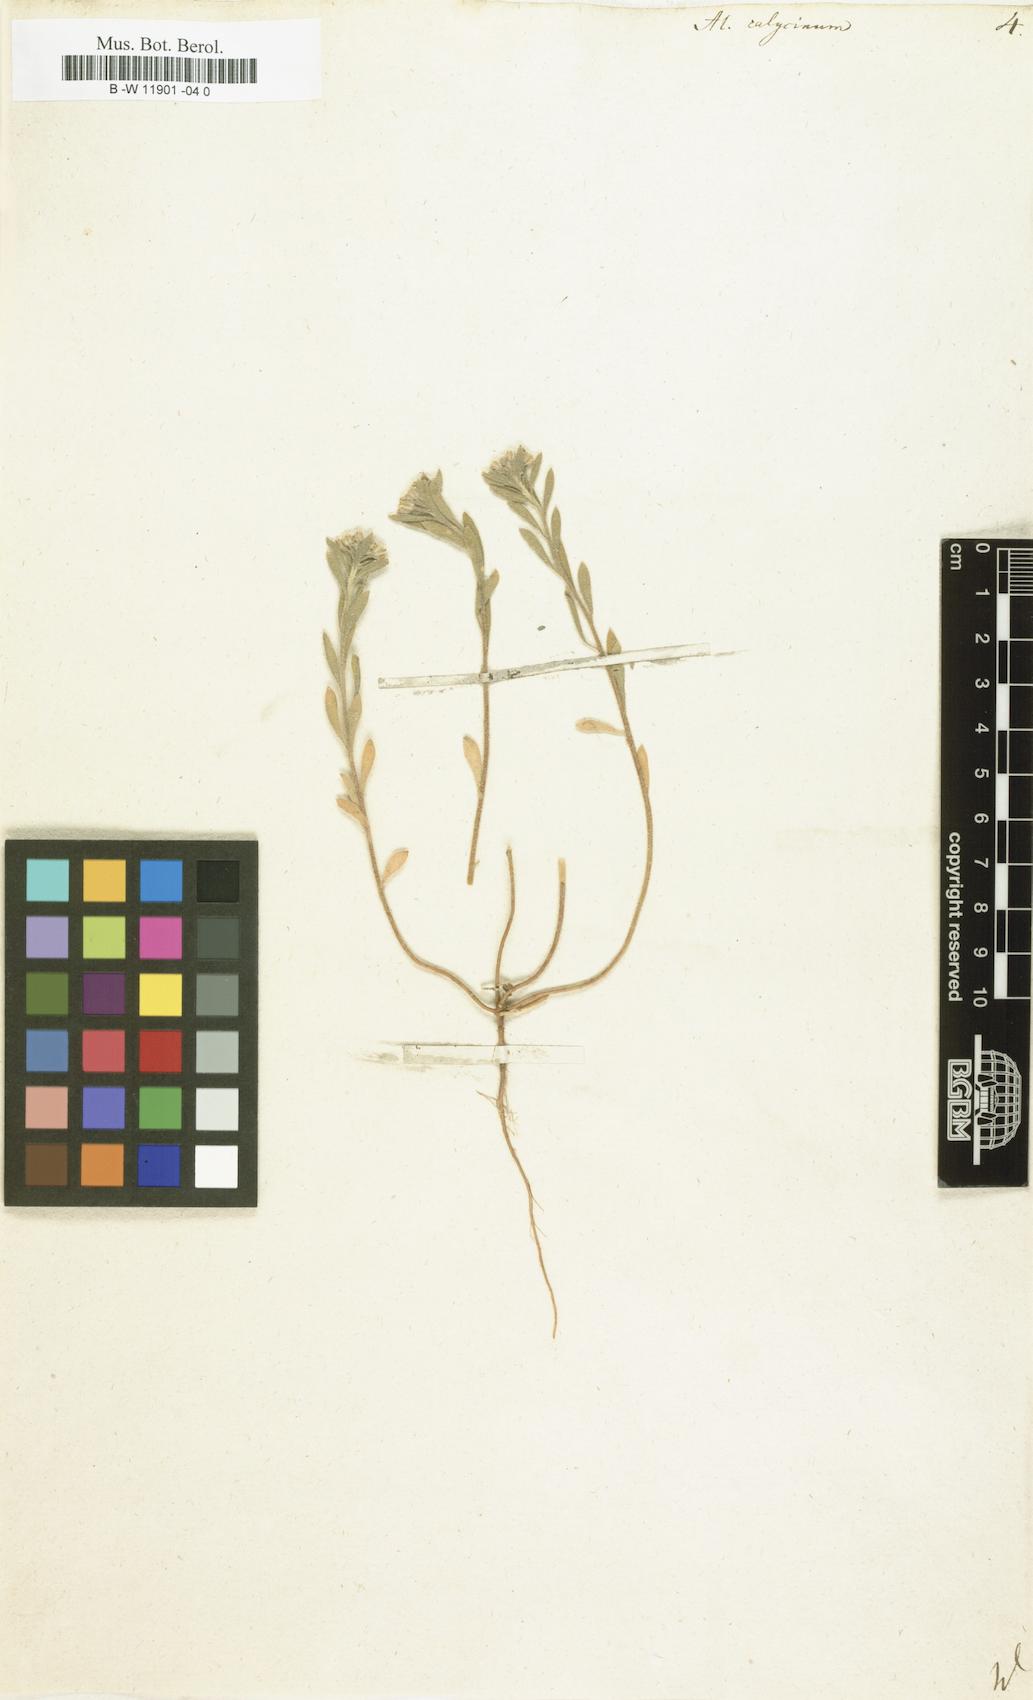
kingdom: Plantae
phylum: Tracheophyta
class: Magnoliopsida
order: Brassicales
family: Brassicaceae
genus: Alyssum
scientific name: Alyssum alyssoides
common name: Small alison
